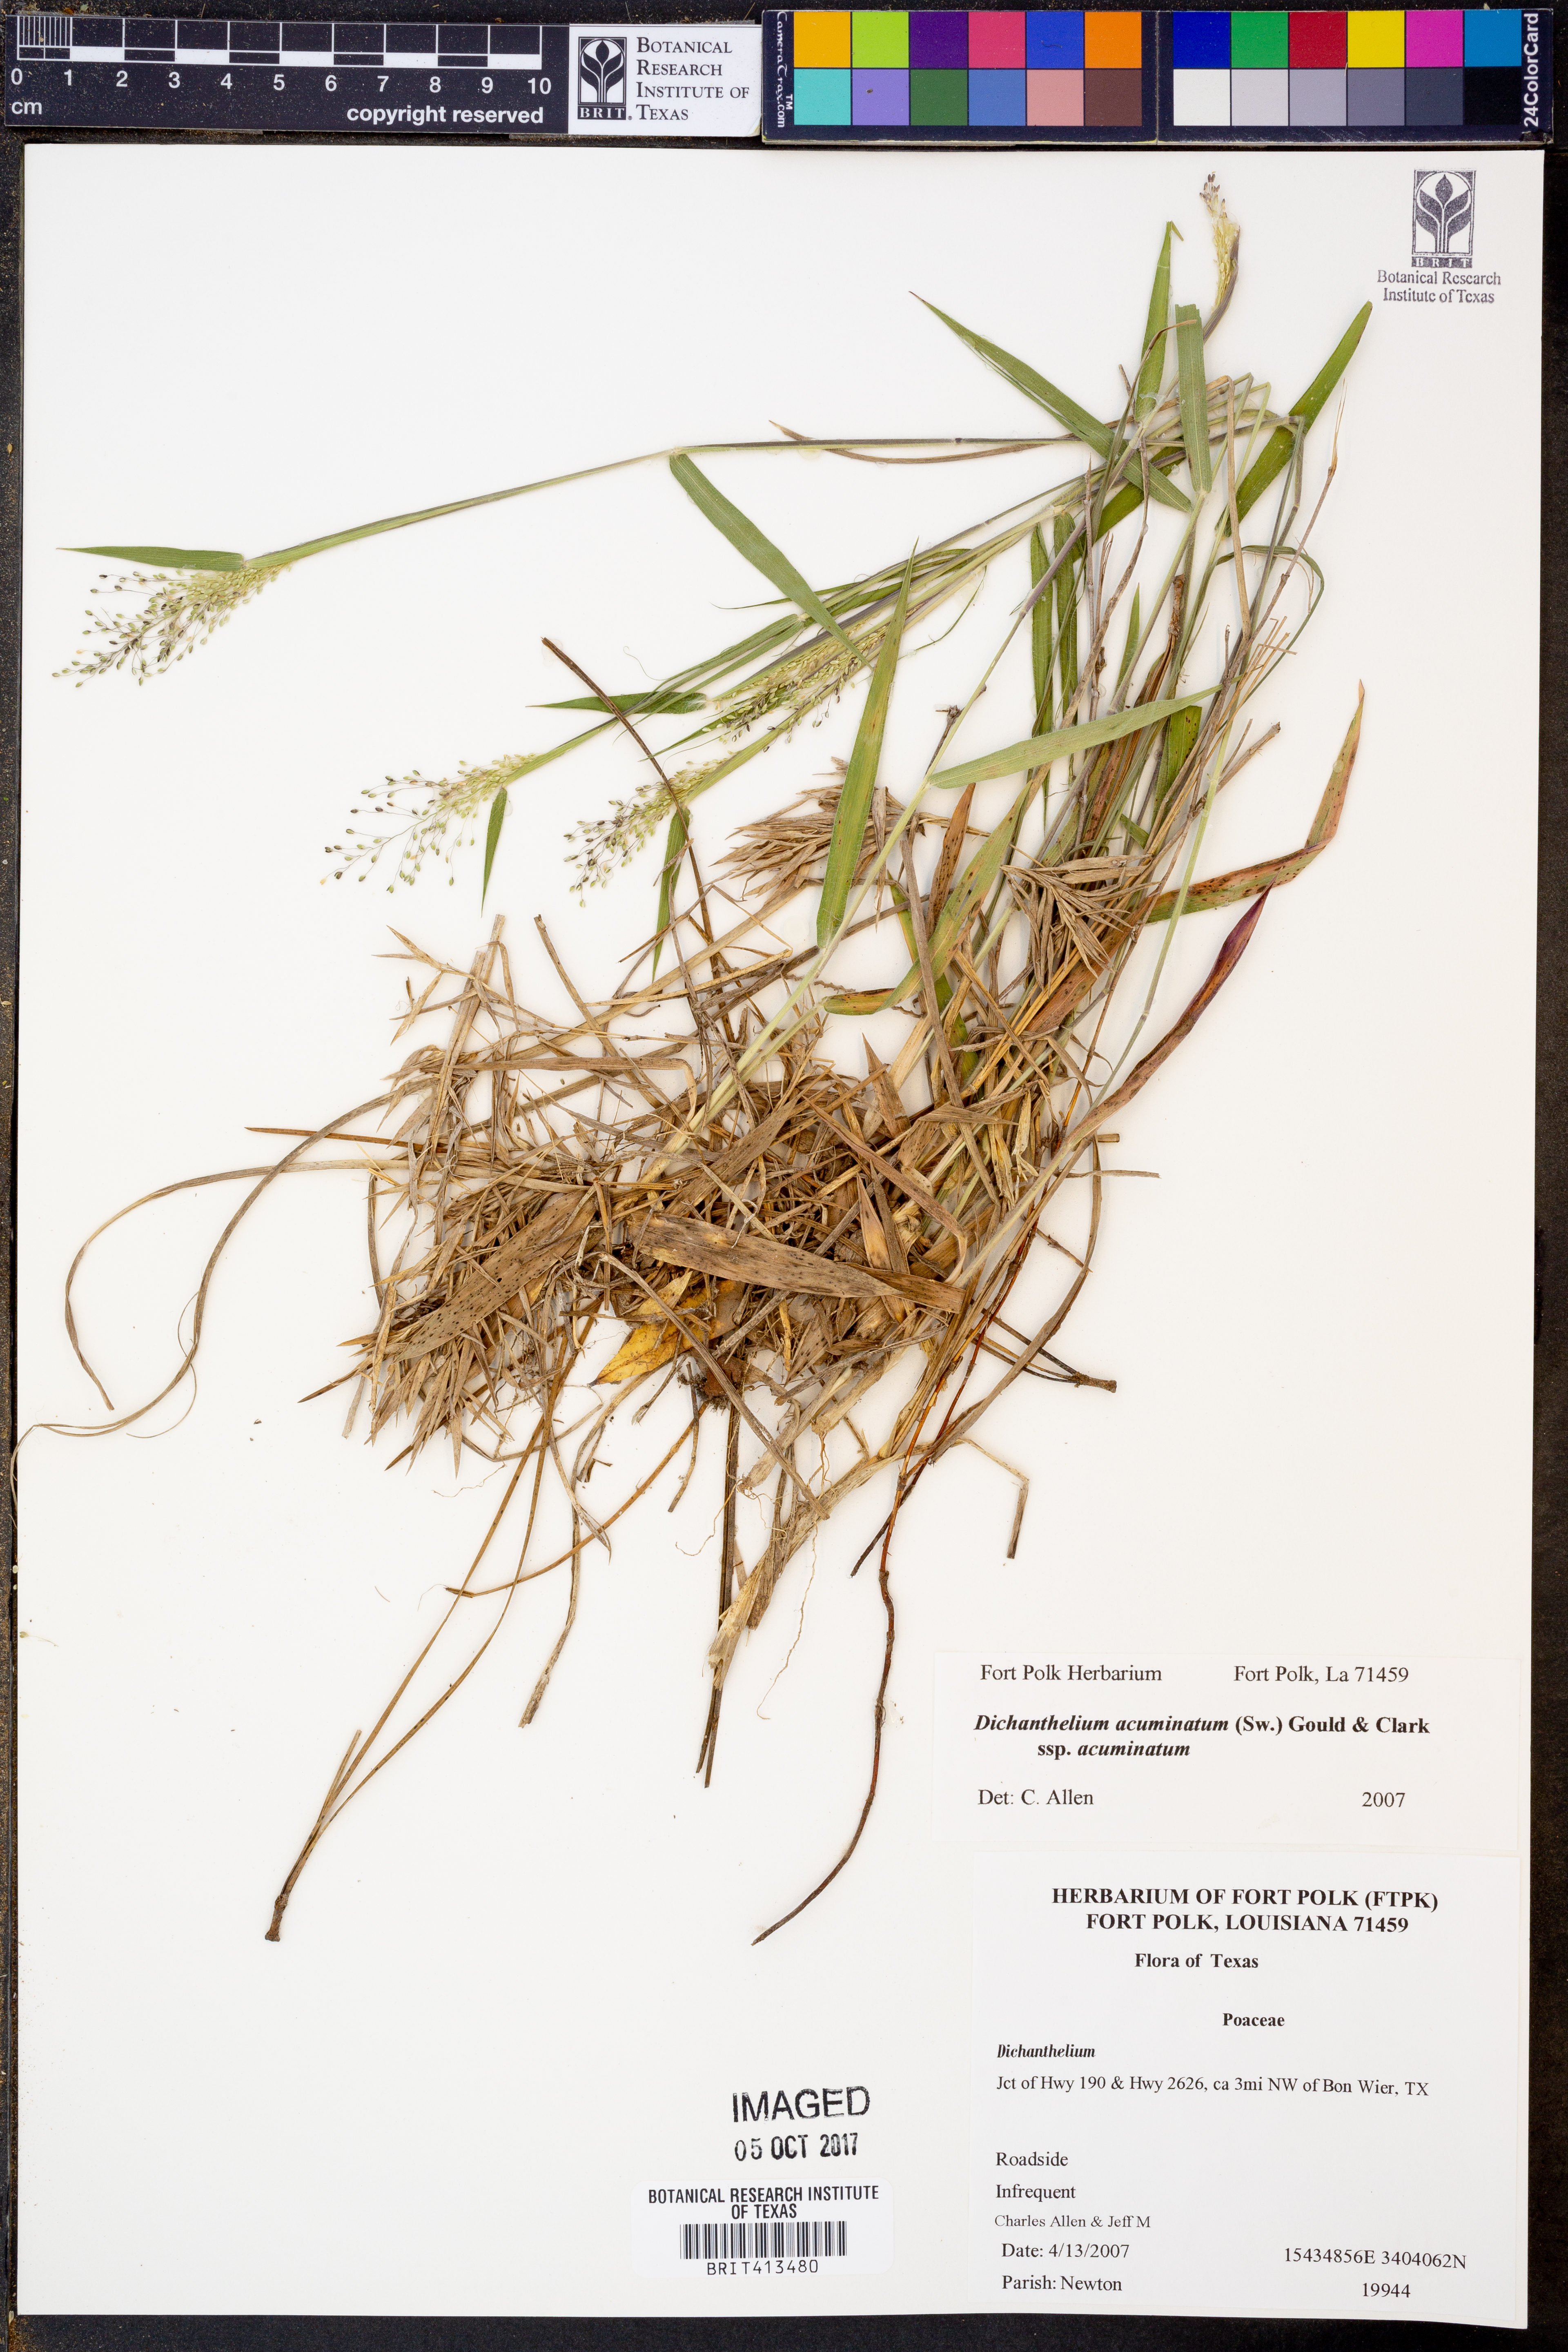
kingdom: Plantae
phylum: Tracheophyta
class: Liliopsida
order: Poales
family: Poaceae
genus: Dichanthelium
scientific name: Dichanthelium acuminatum
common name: Hairy panic grass
